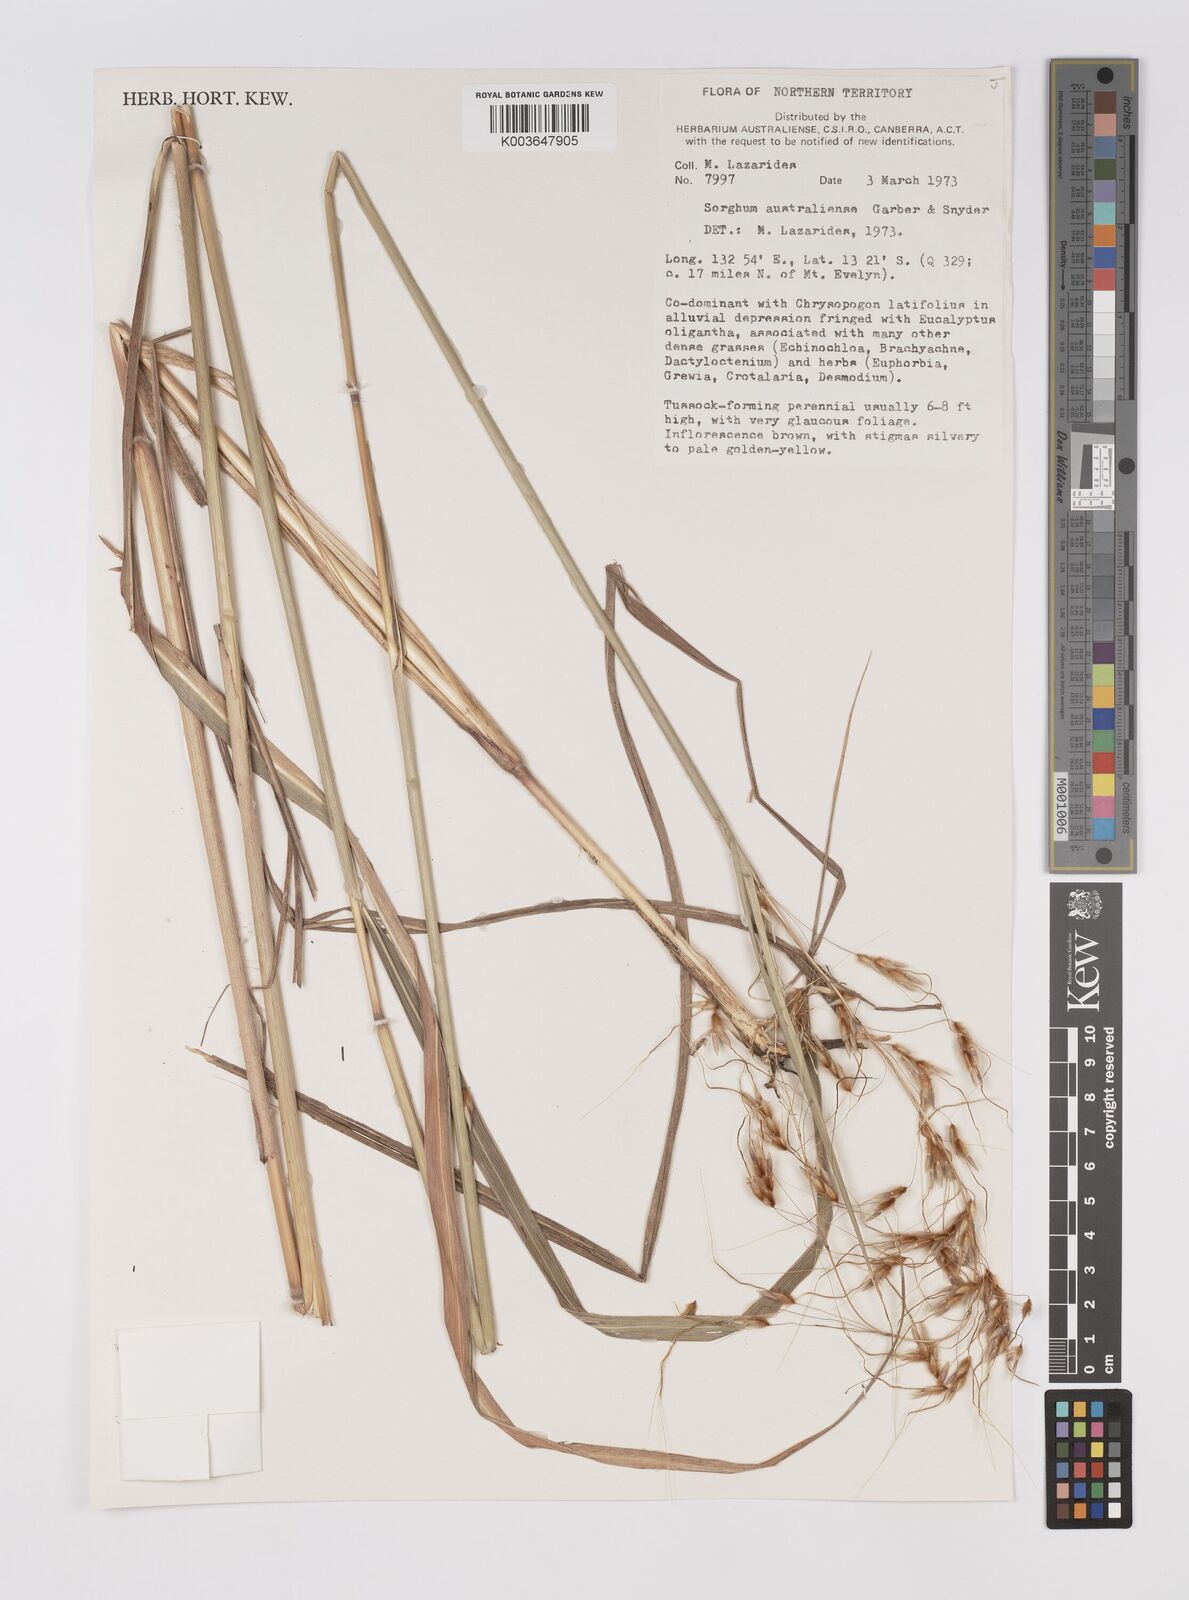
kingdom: Plantae
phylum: Tracheophyta
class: Liliopsida
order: Poales
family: Poaceae
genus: Sarga
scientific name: Sarga timorensis
